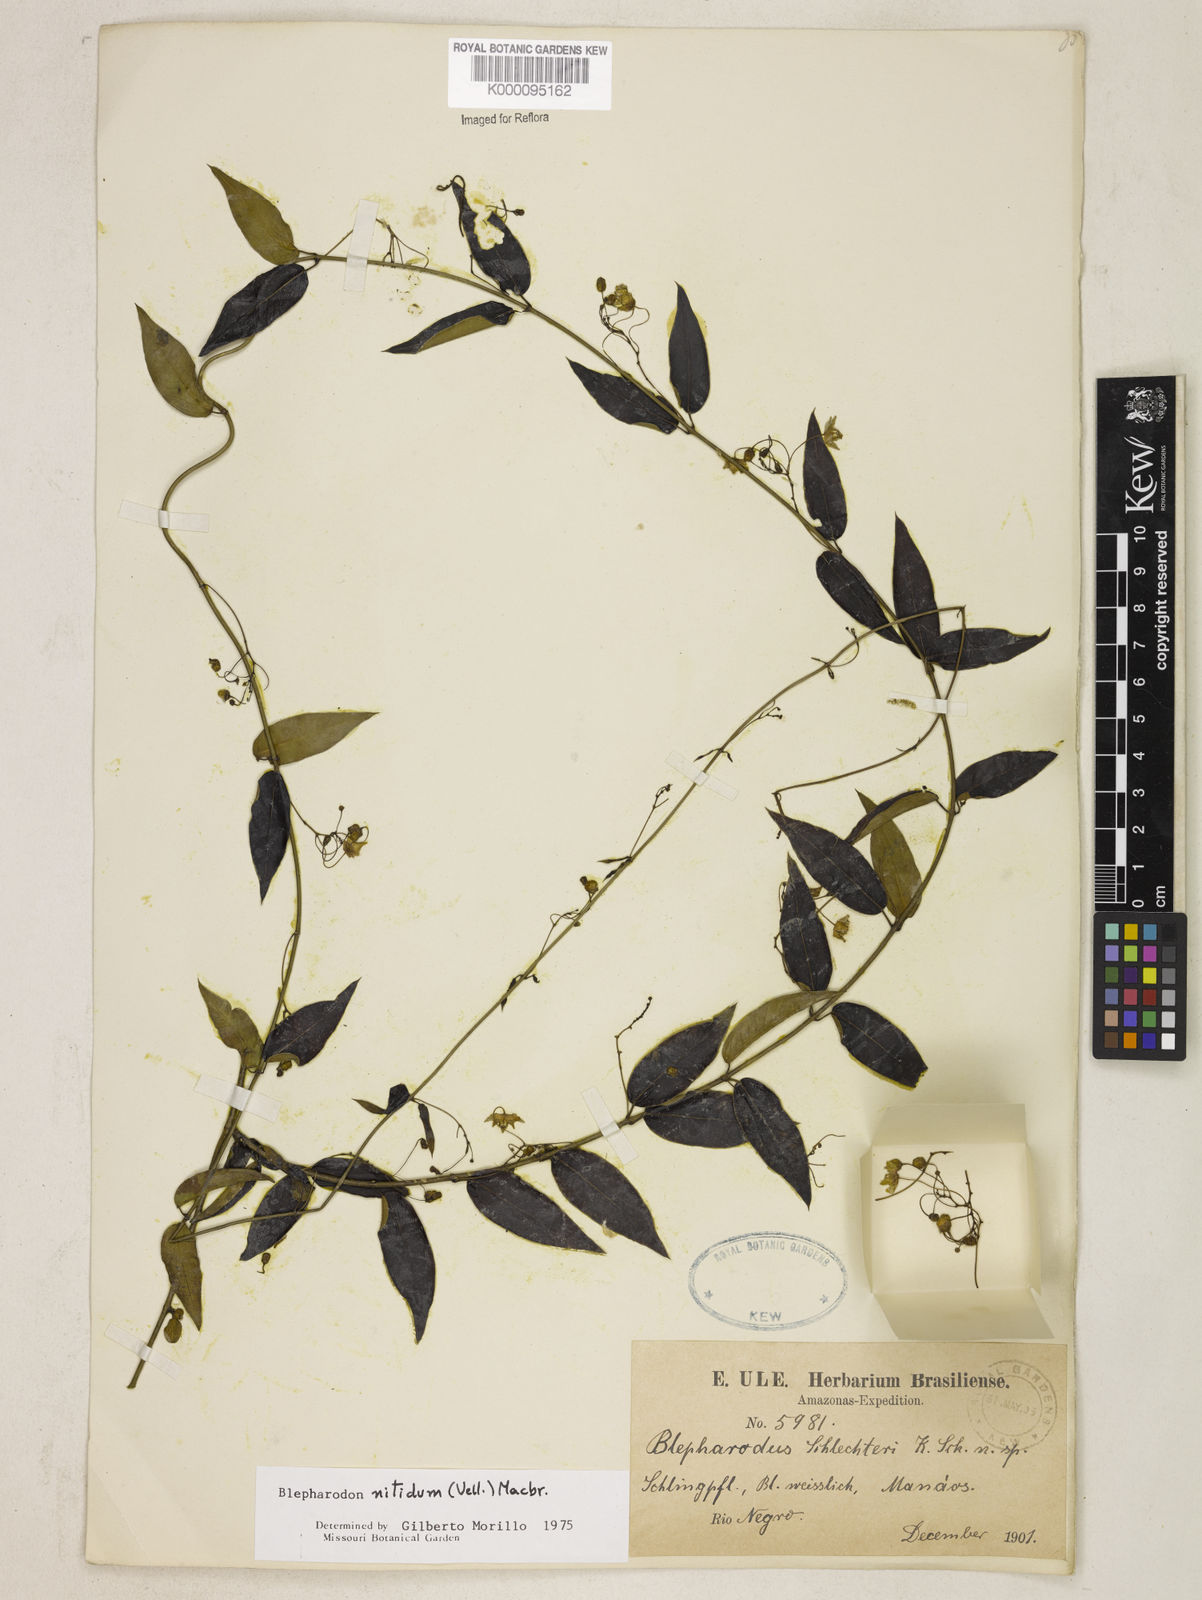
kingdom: Plantae
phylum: Tracheophyta
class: Magnoliopsida
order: Gentianales
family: Apocynaceae
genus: Blepharodon
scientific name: Blepharodon pictum
